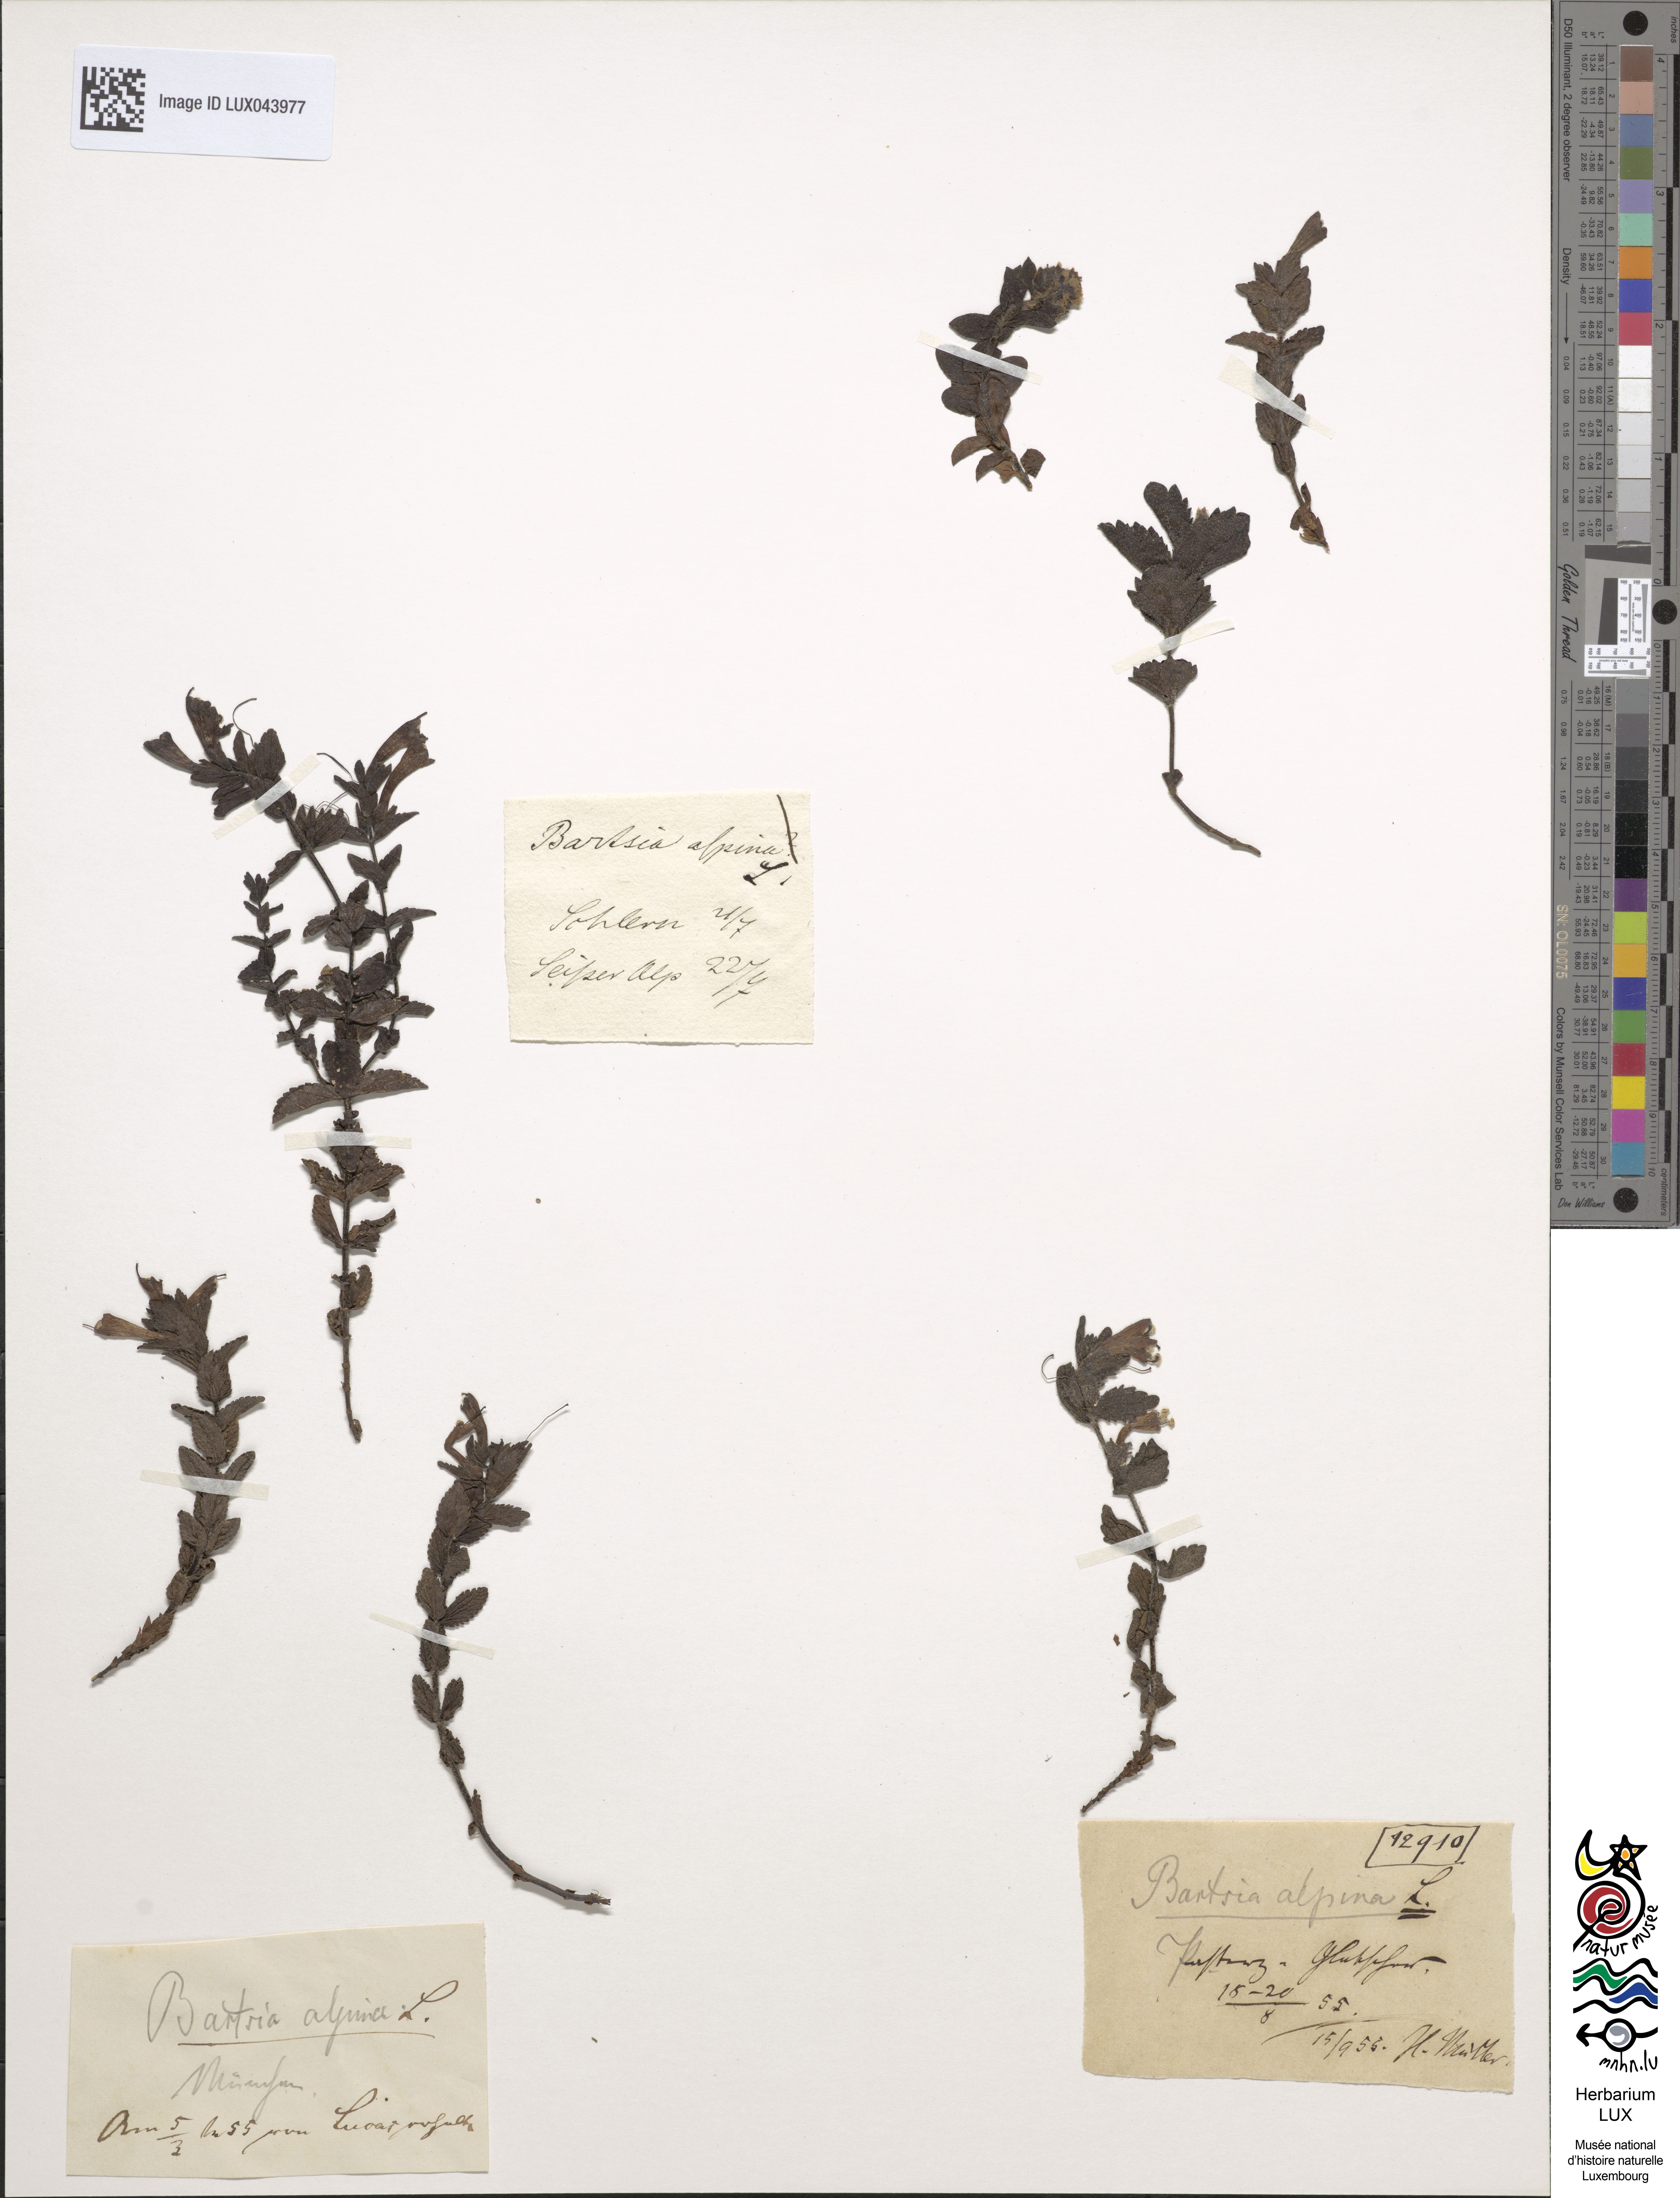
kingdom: Plantae
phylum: Tracheophyta
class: Magnoliopsida
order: Lamiales
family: Orobanchaceae
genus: Bartsia
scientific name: Bartsia alpina
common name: Alpine bartsia
